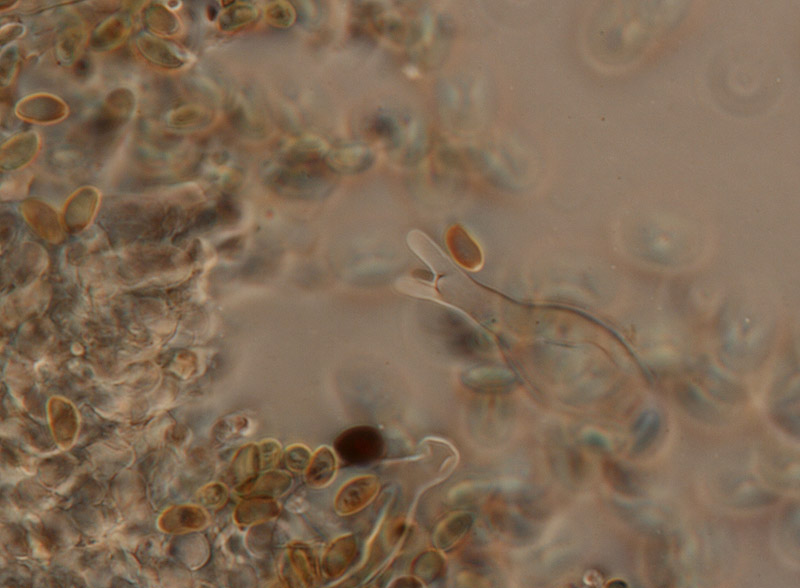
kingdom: Fungi
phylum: Basidiomycota
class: Agaricomycetes
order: Agaricales
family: Strophariaceae
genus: Agrocybe
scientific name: Agrocybe arvalis
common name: rodslående agerhat
